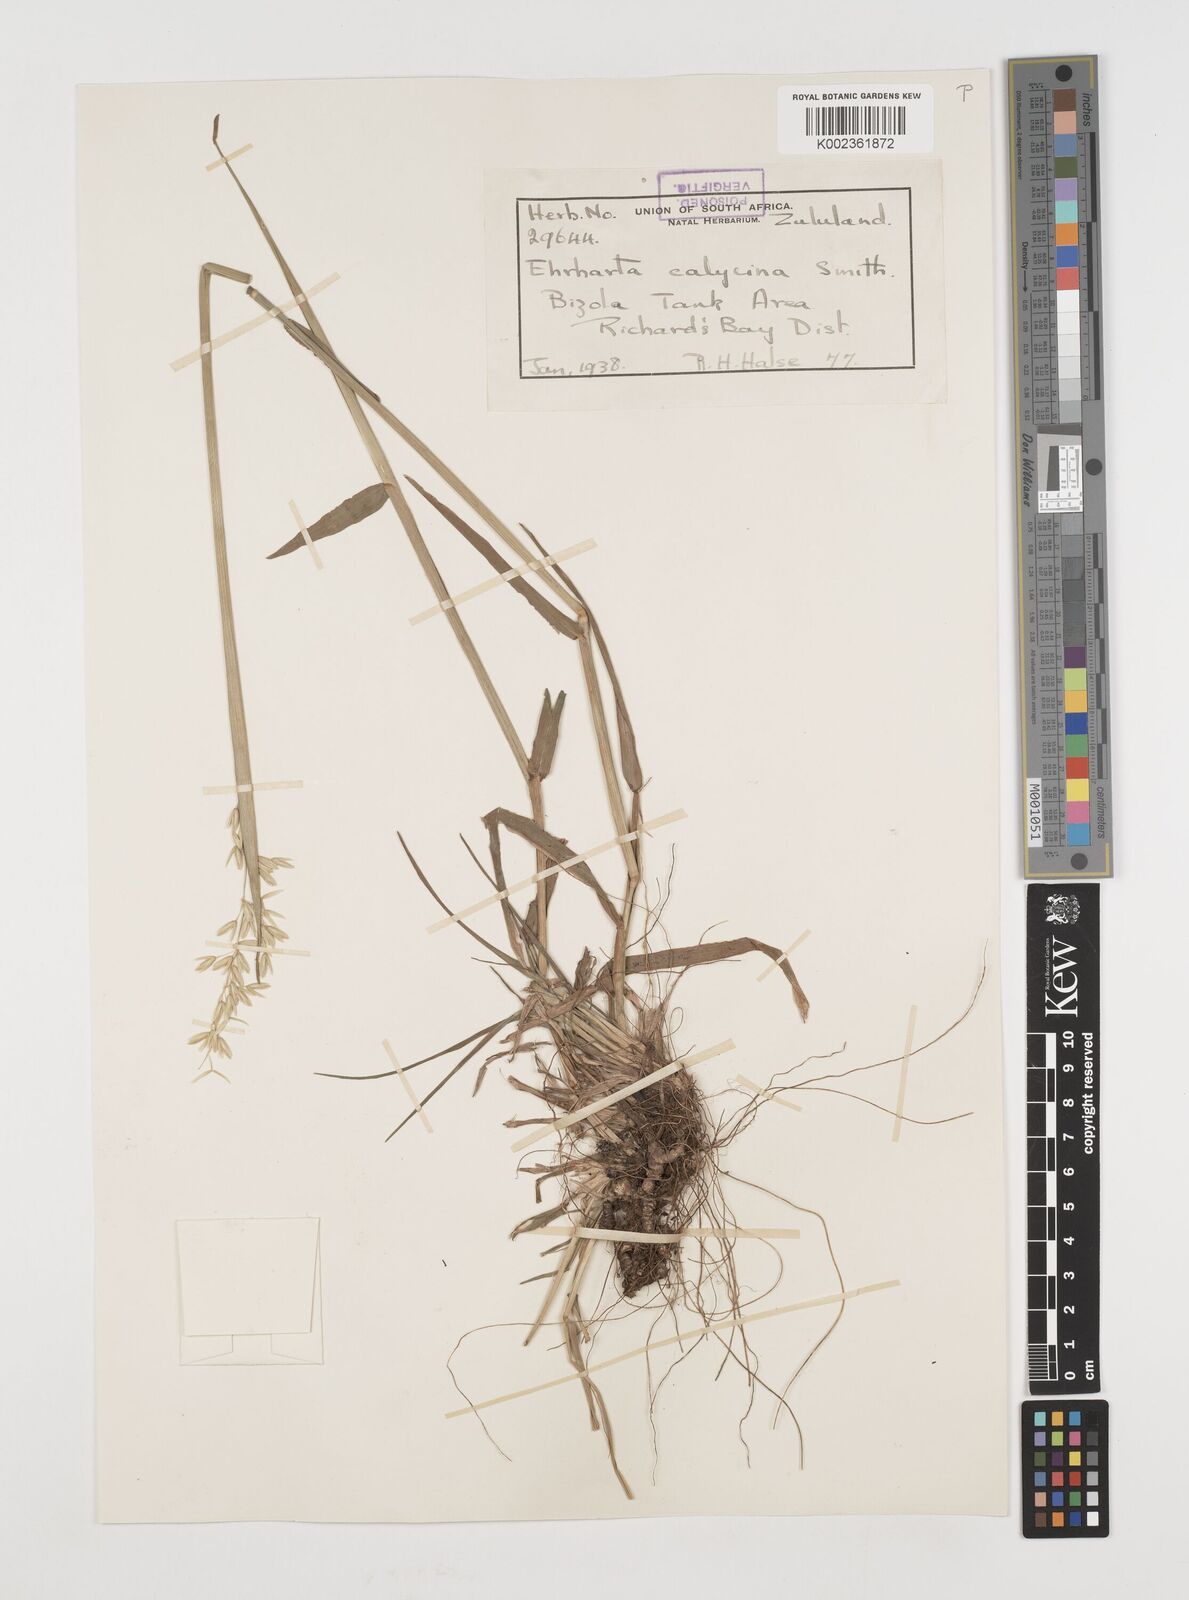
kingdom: Plantae
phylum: Tracheophyta
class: Liliopsida
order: Poales
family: Poaceae
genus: Ehrharta
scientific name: Ehrharta
